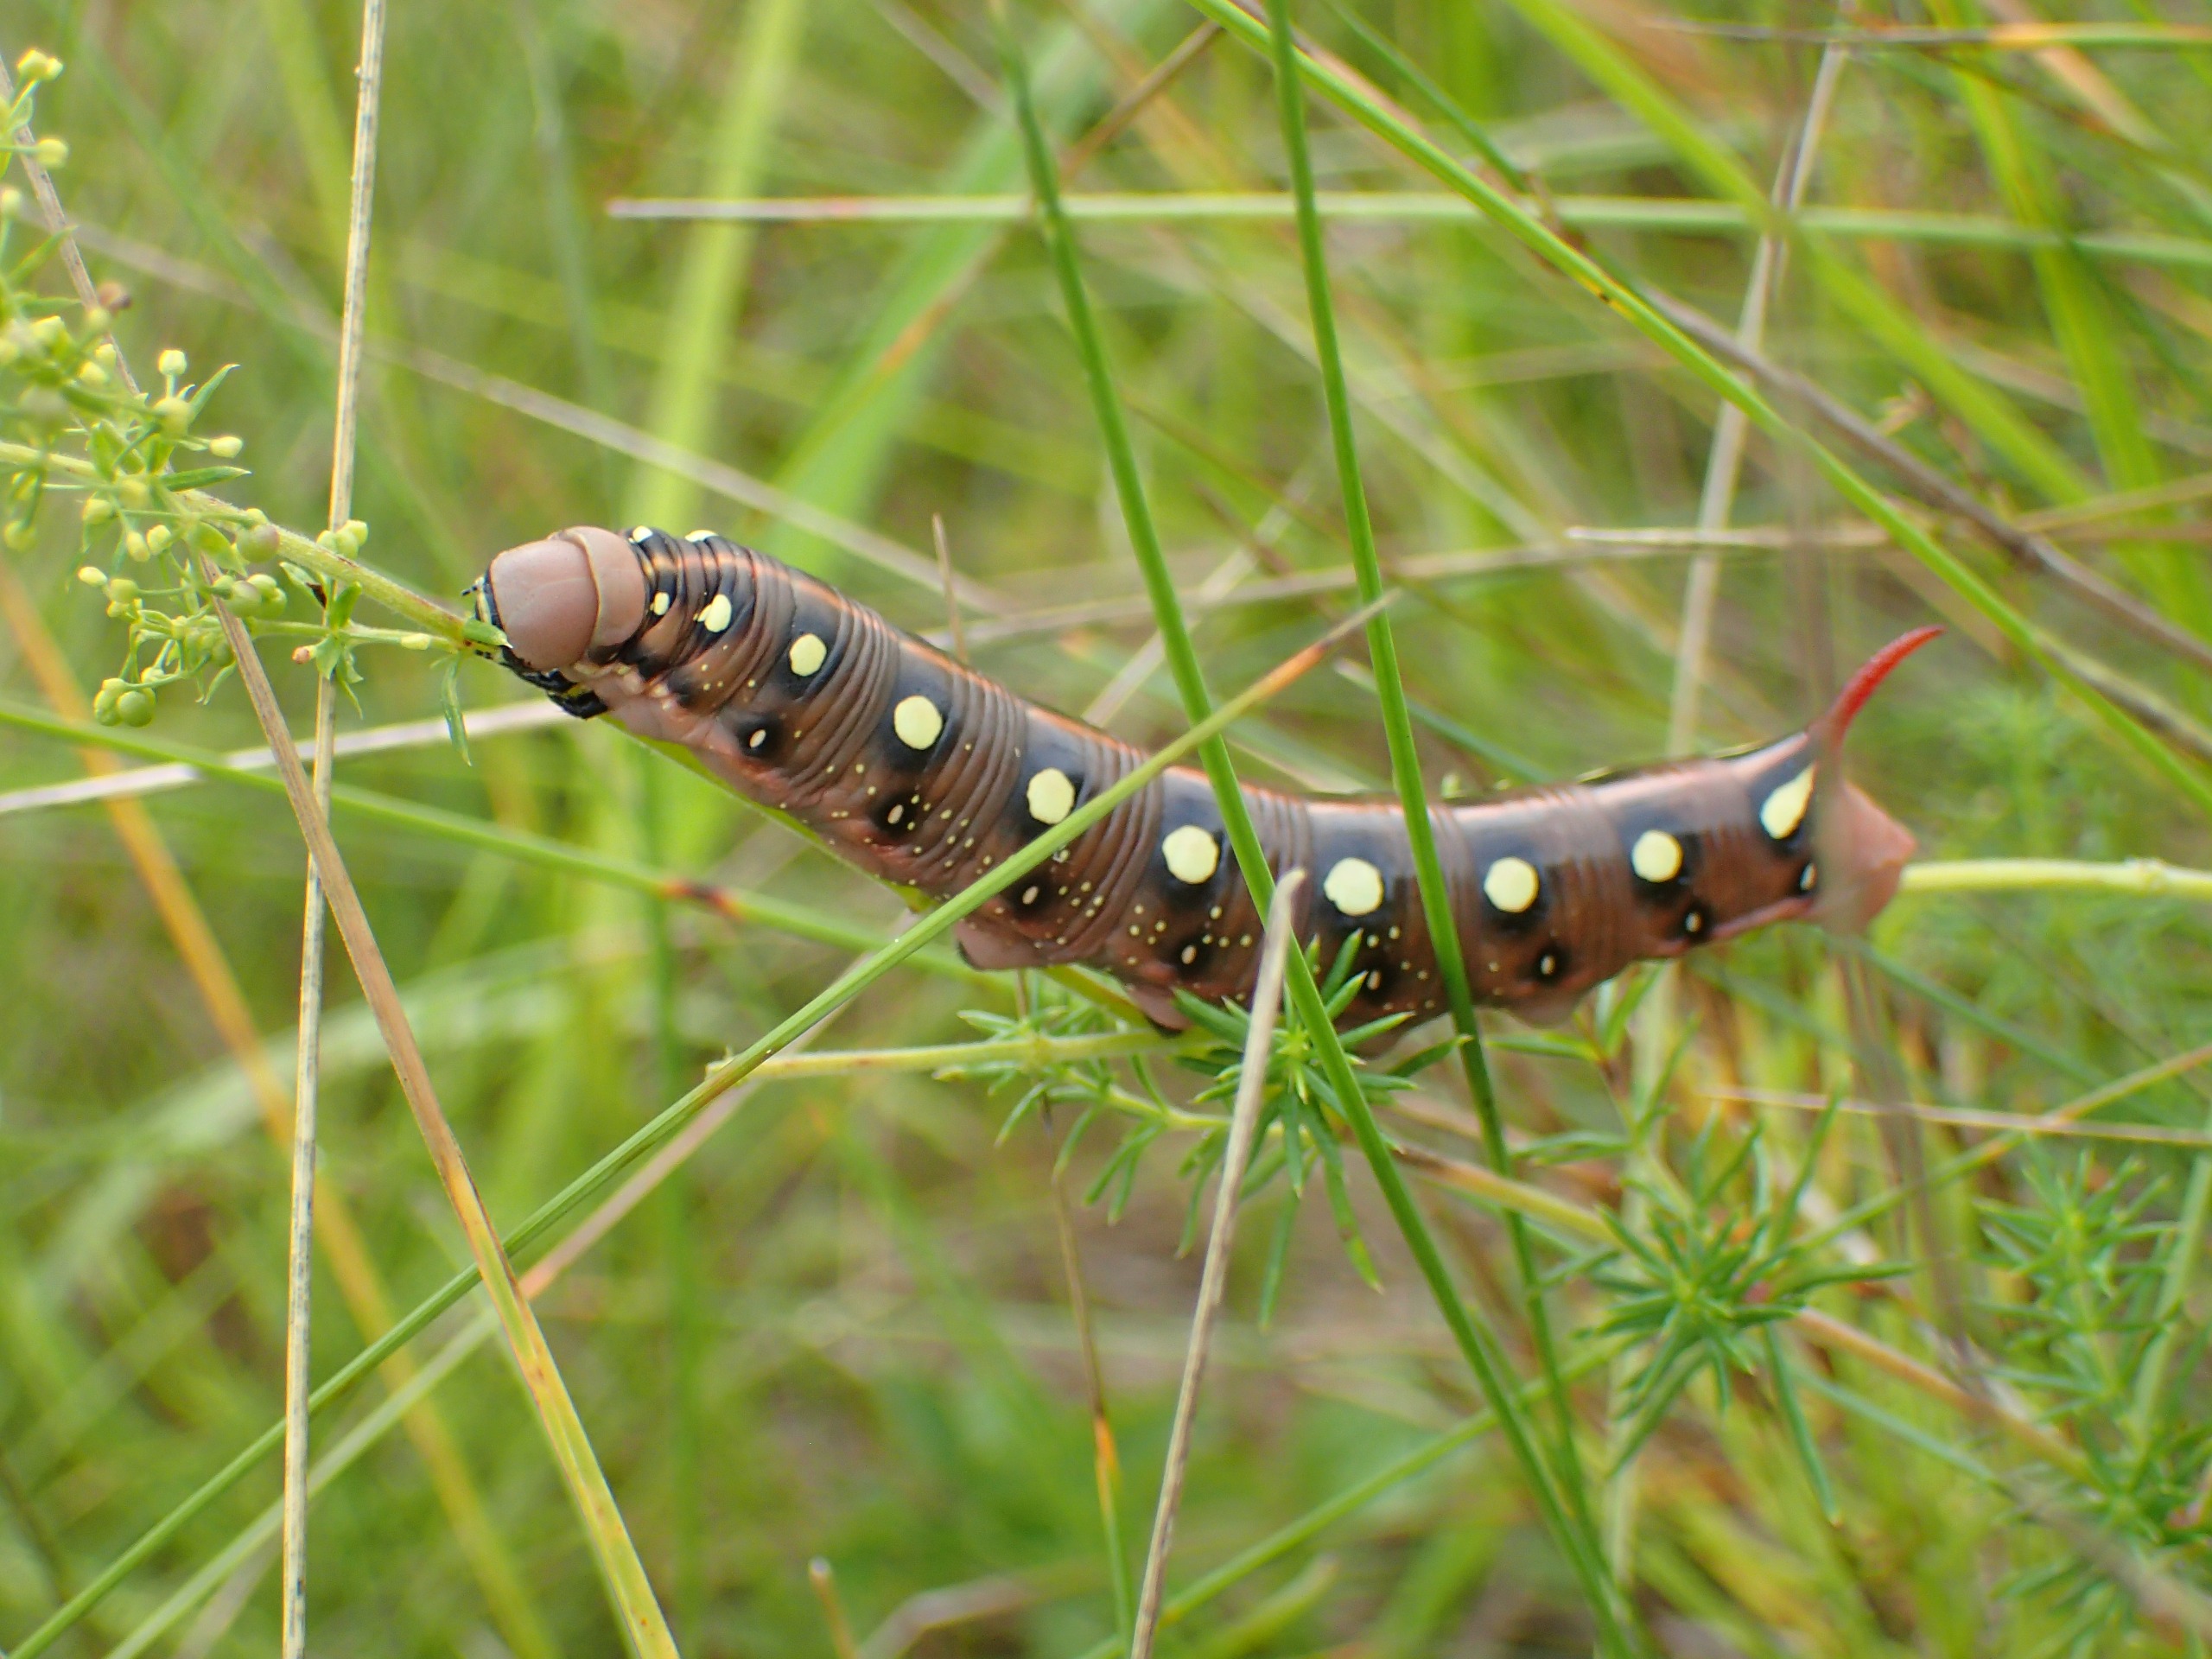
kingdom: Animalia
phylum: Arthropoda
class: Insecta
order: Lepidoptera
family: Sphingidae
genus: Hyles
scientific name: Hyles gallii
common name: Snerresværmer
